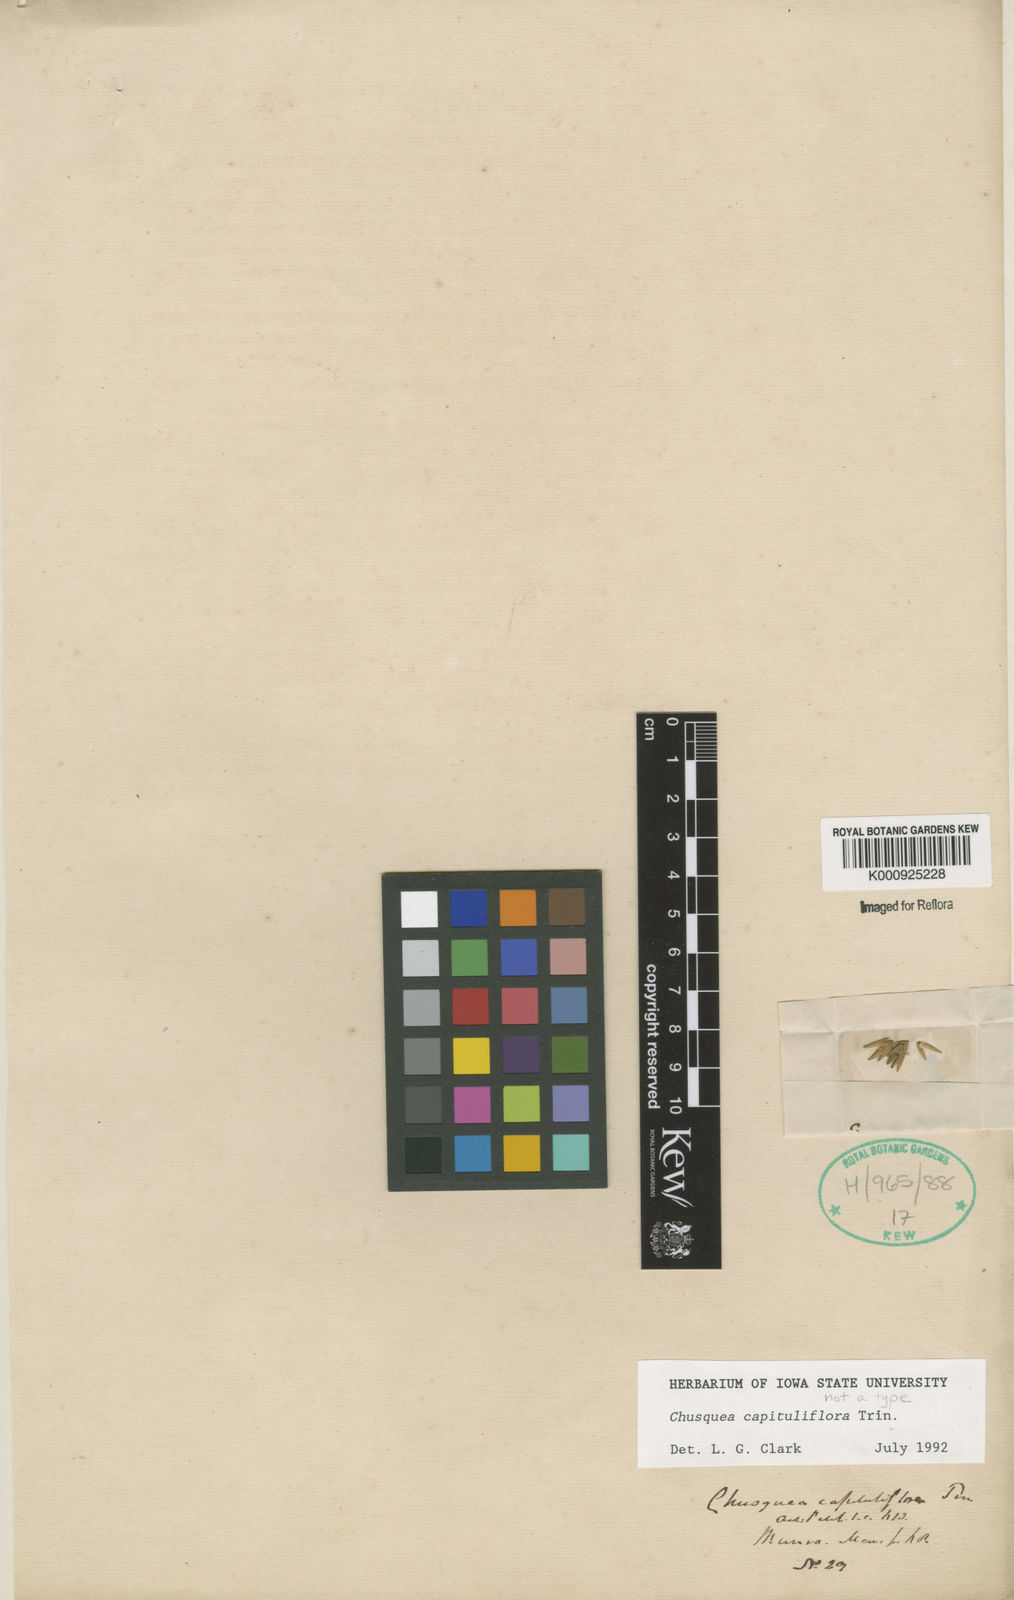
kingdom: Plantae
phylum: Tracheophyta
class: Liliopsida
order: Poales
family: Poaceae
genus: Chusquea
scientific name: Chusquea
